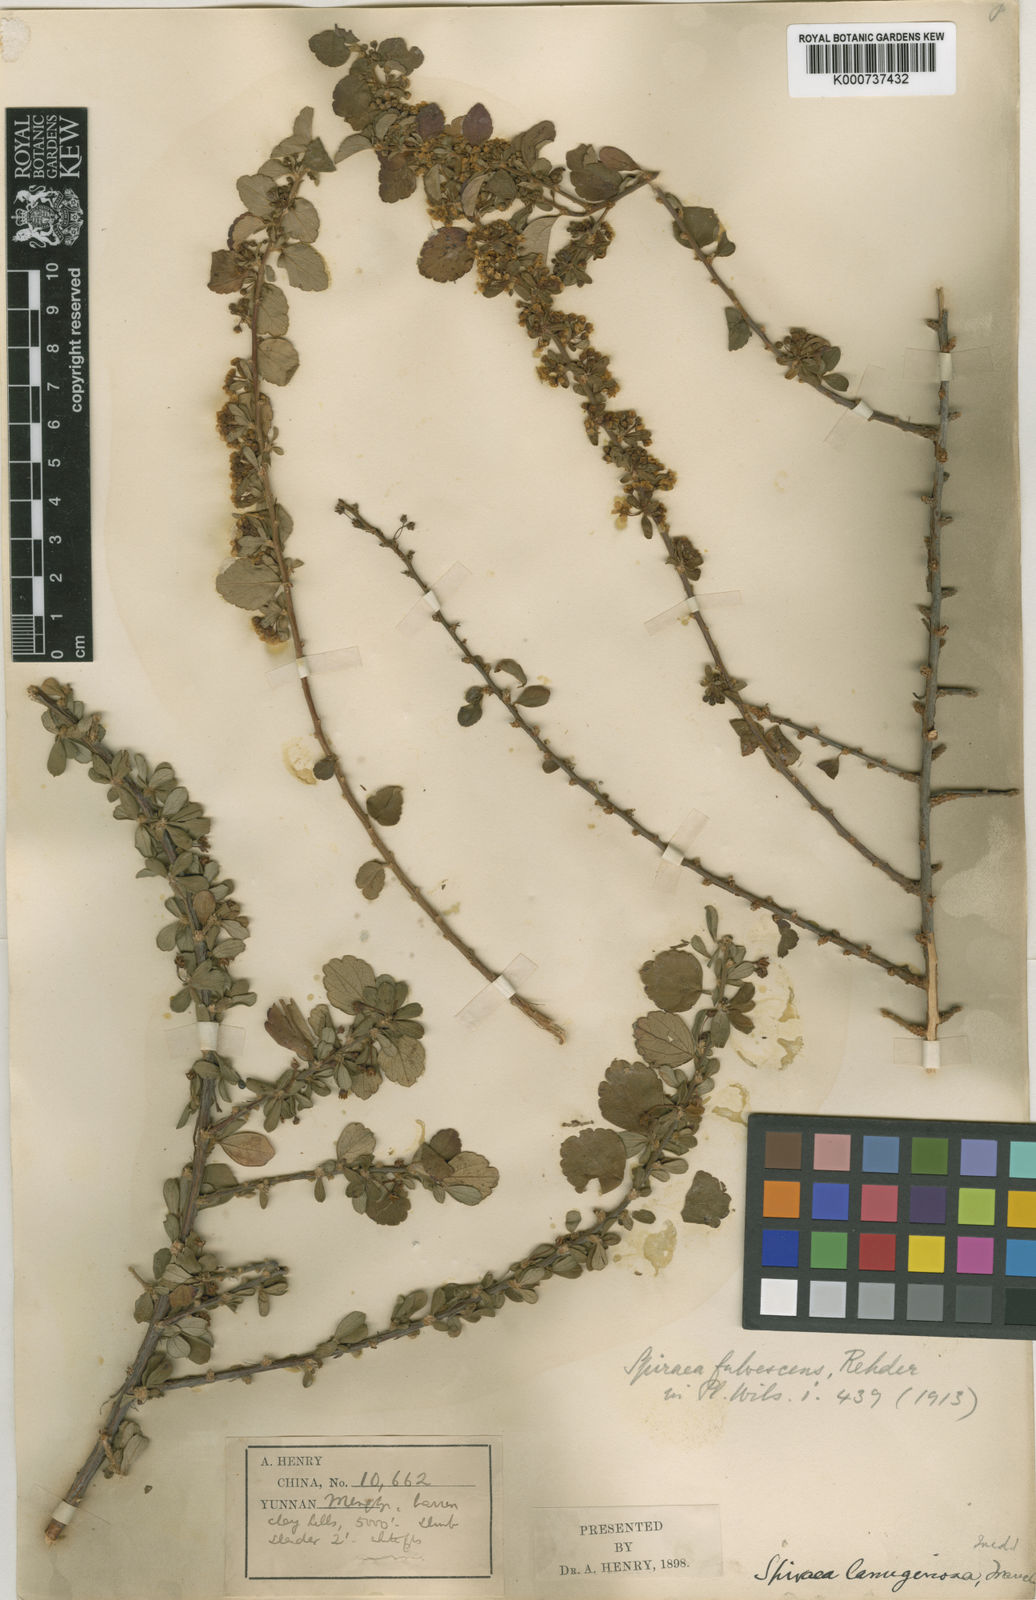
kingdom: Plantae
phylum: Tracheophyta
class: Magnoliopsida
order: Rosales
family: Rosaceae
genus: Spiraea
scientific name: Spiraea martini
